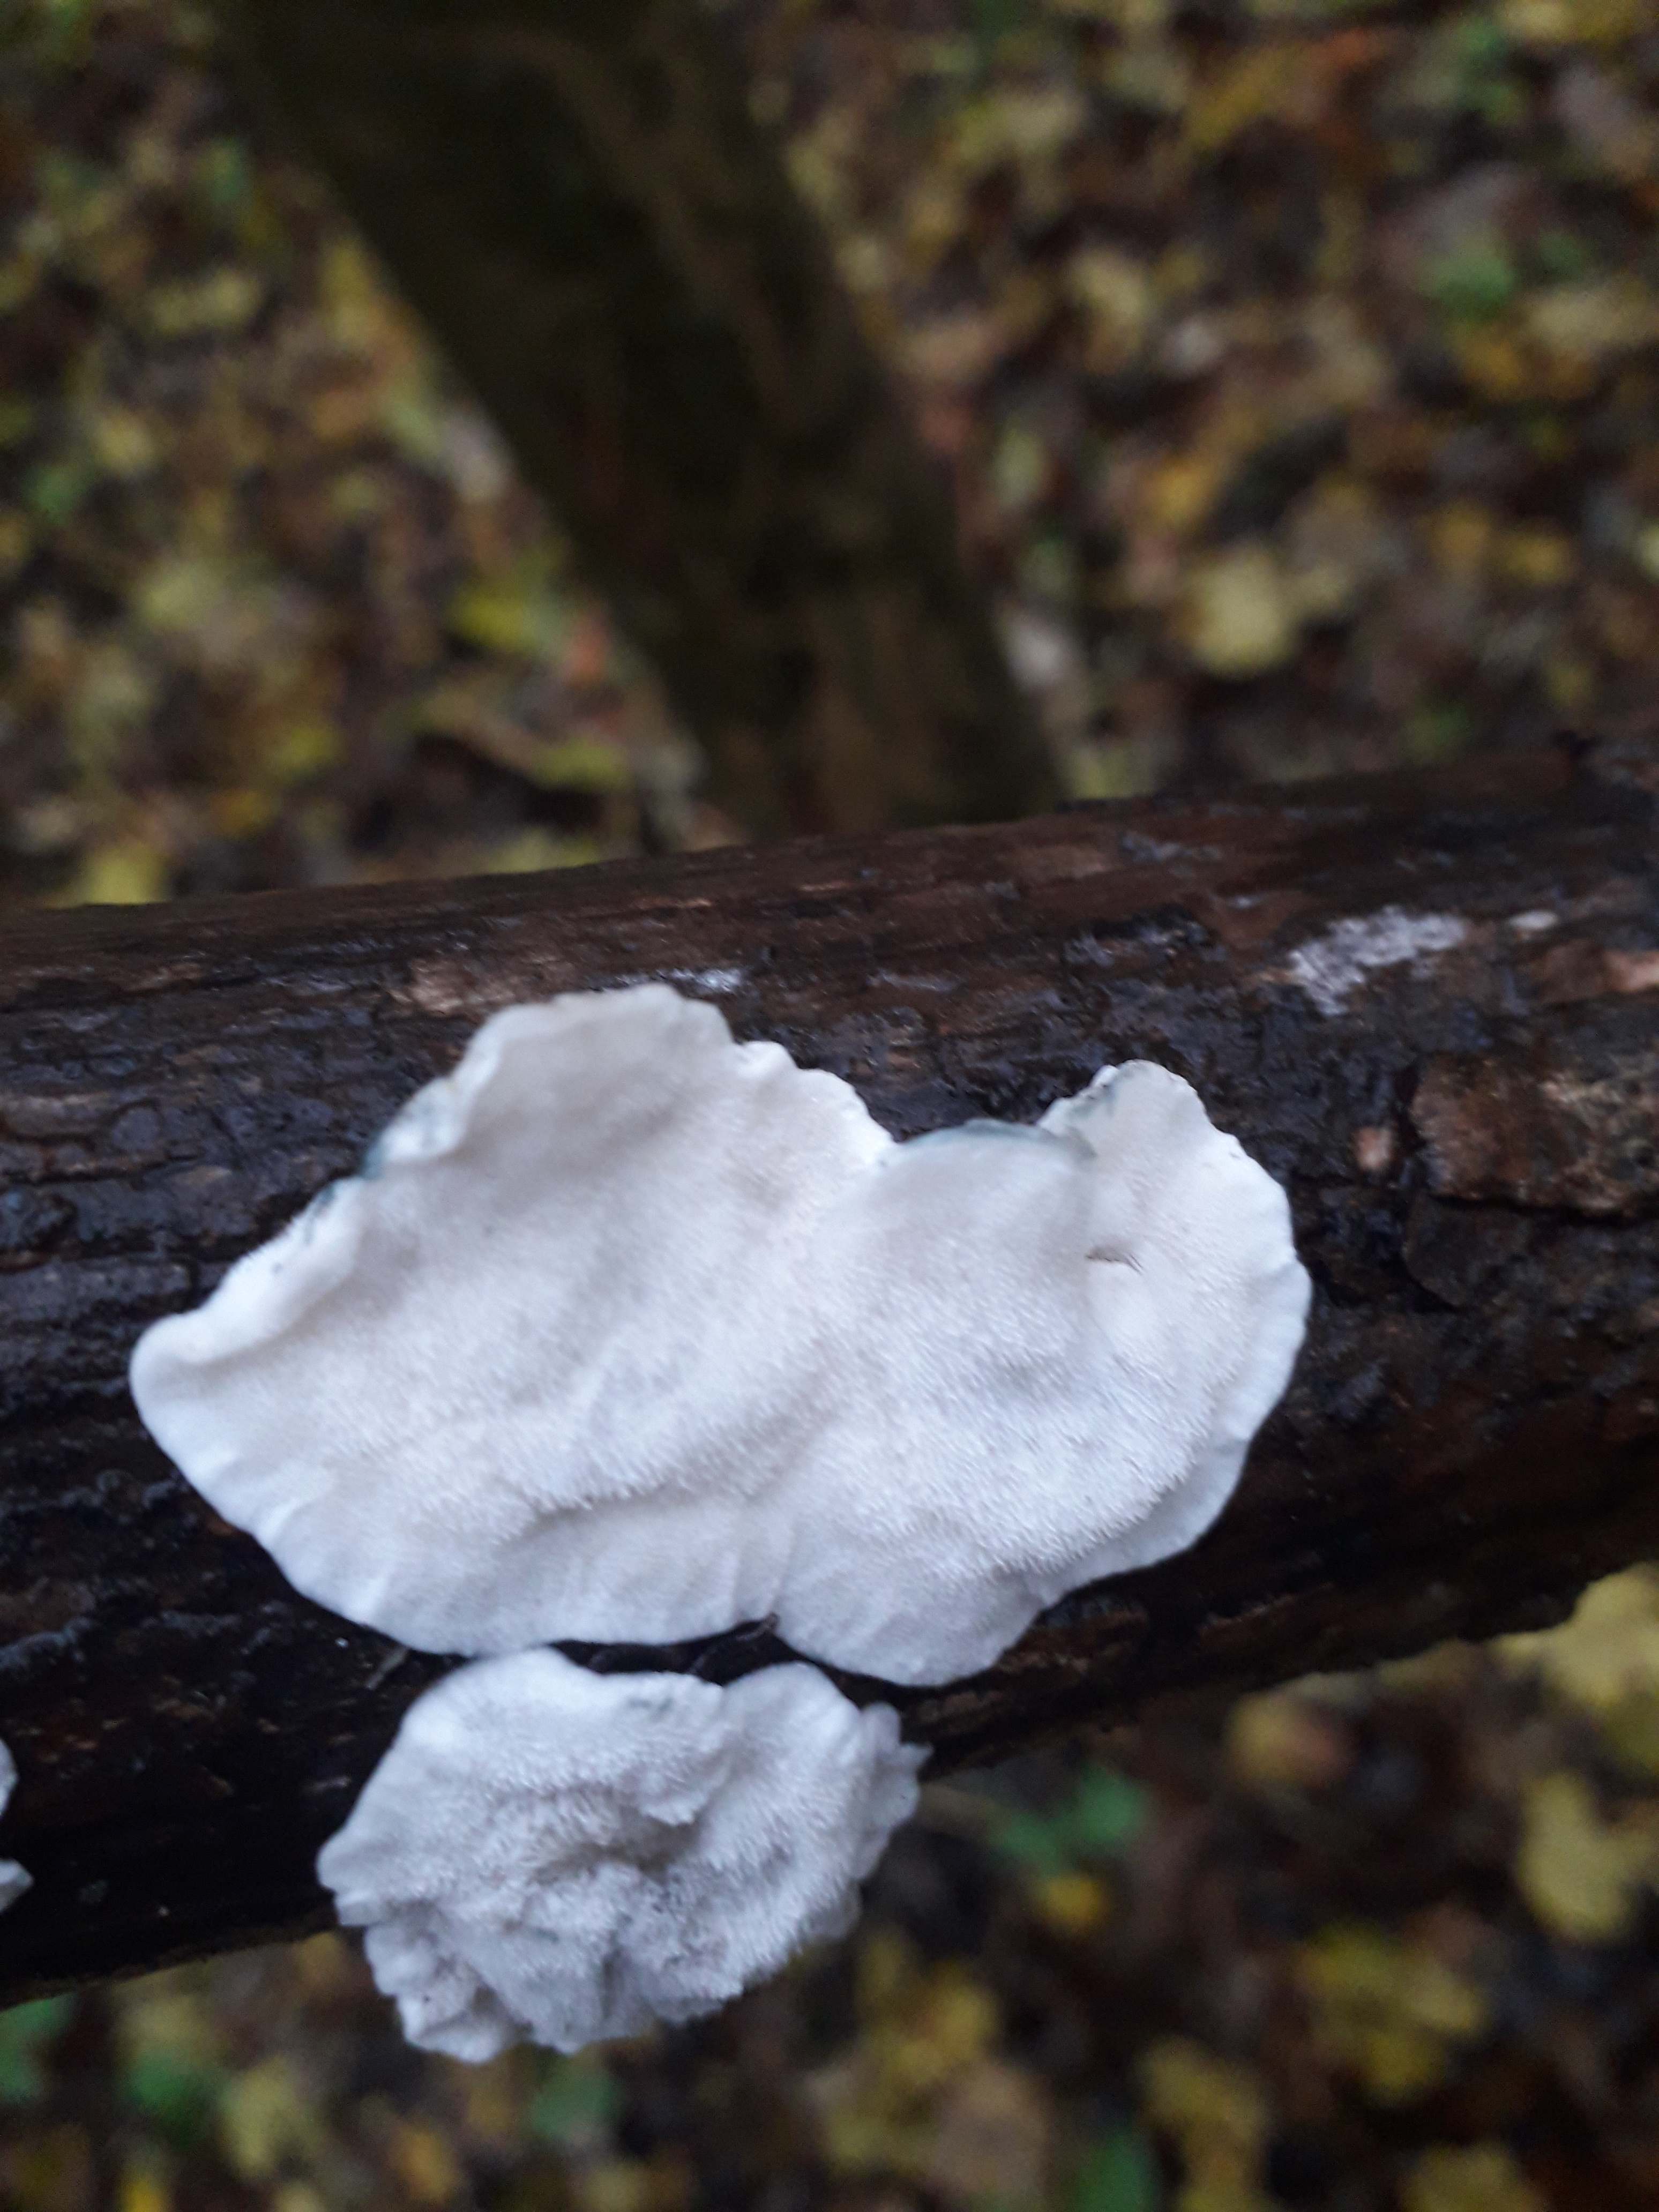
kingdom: Fungi
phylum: Basidiomycota
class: Agaricomycetes
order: Polyporales
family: Polyporaceae
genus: Cyanosporus
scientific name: Cyanosporus alni
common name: blegblå kødporesvamp
